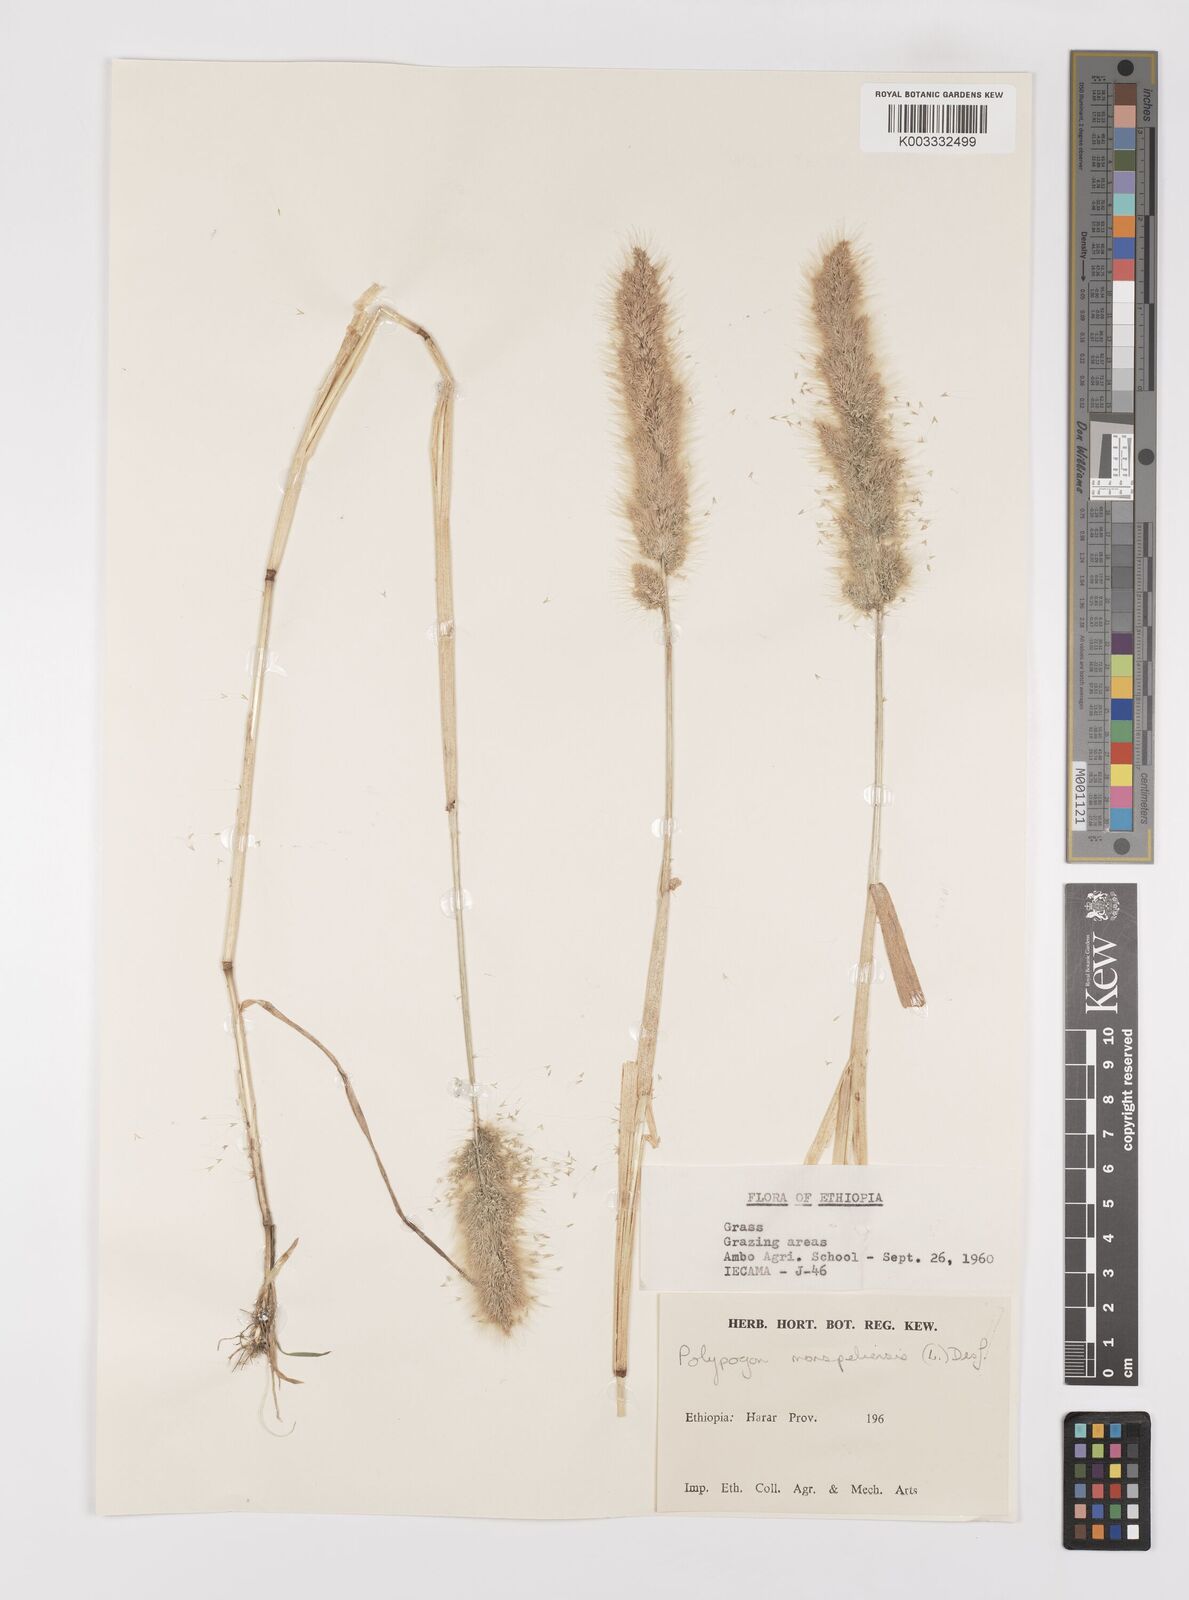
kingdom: Plantae
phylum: Tracheophyta
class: Liliopsida
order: Poales
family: Poaceae
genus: Polypogon
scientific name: Polypogon monspeliensis
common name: Annual rabbitsfoot grass
